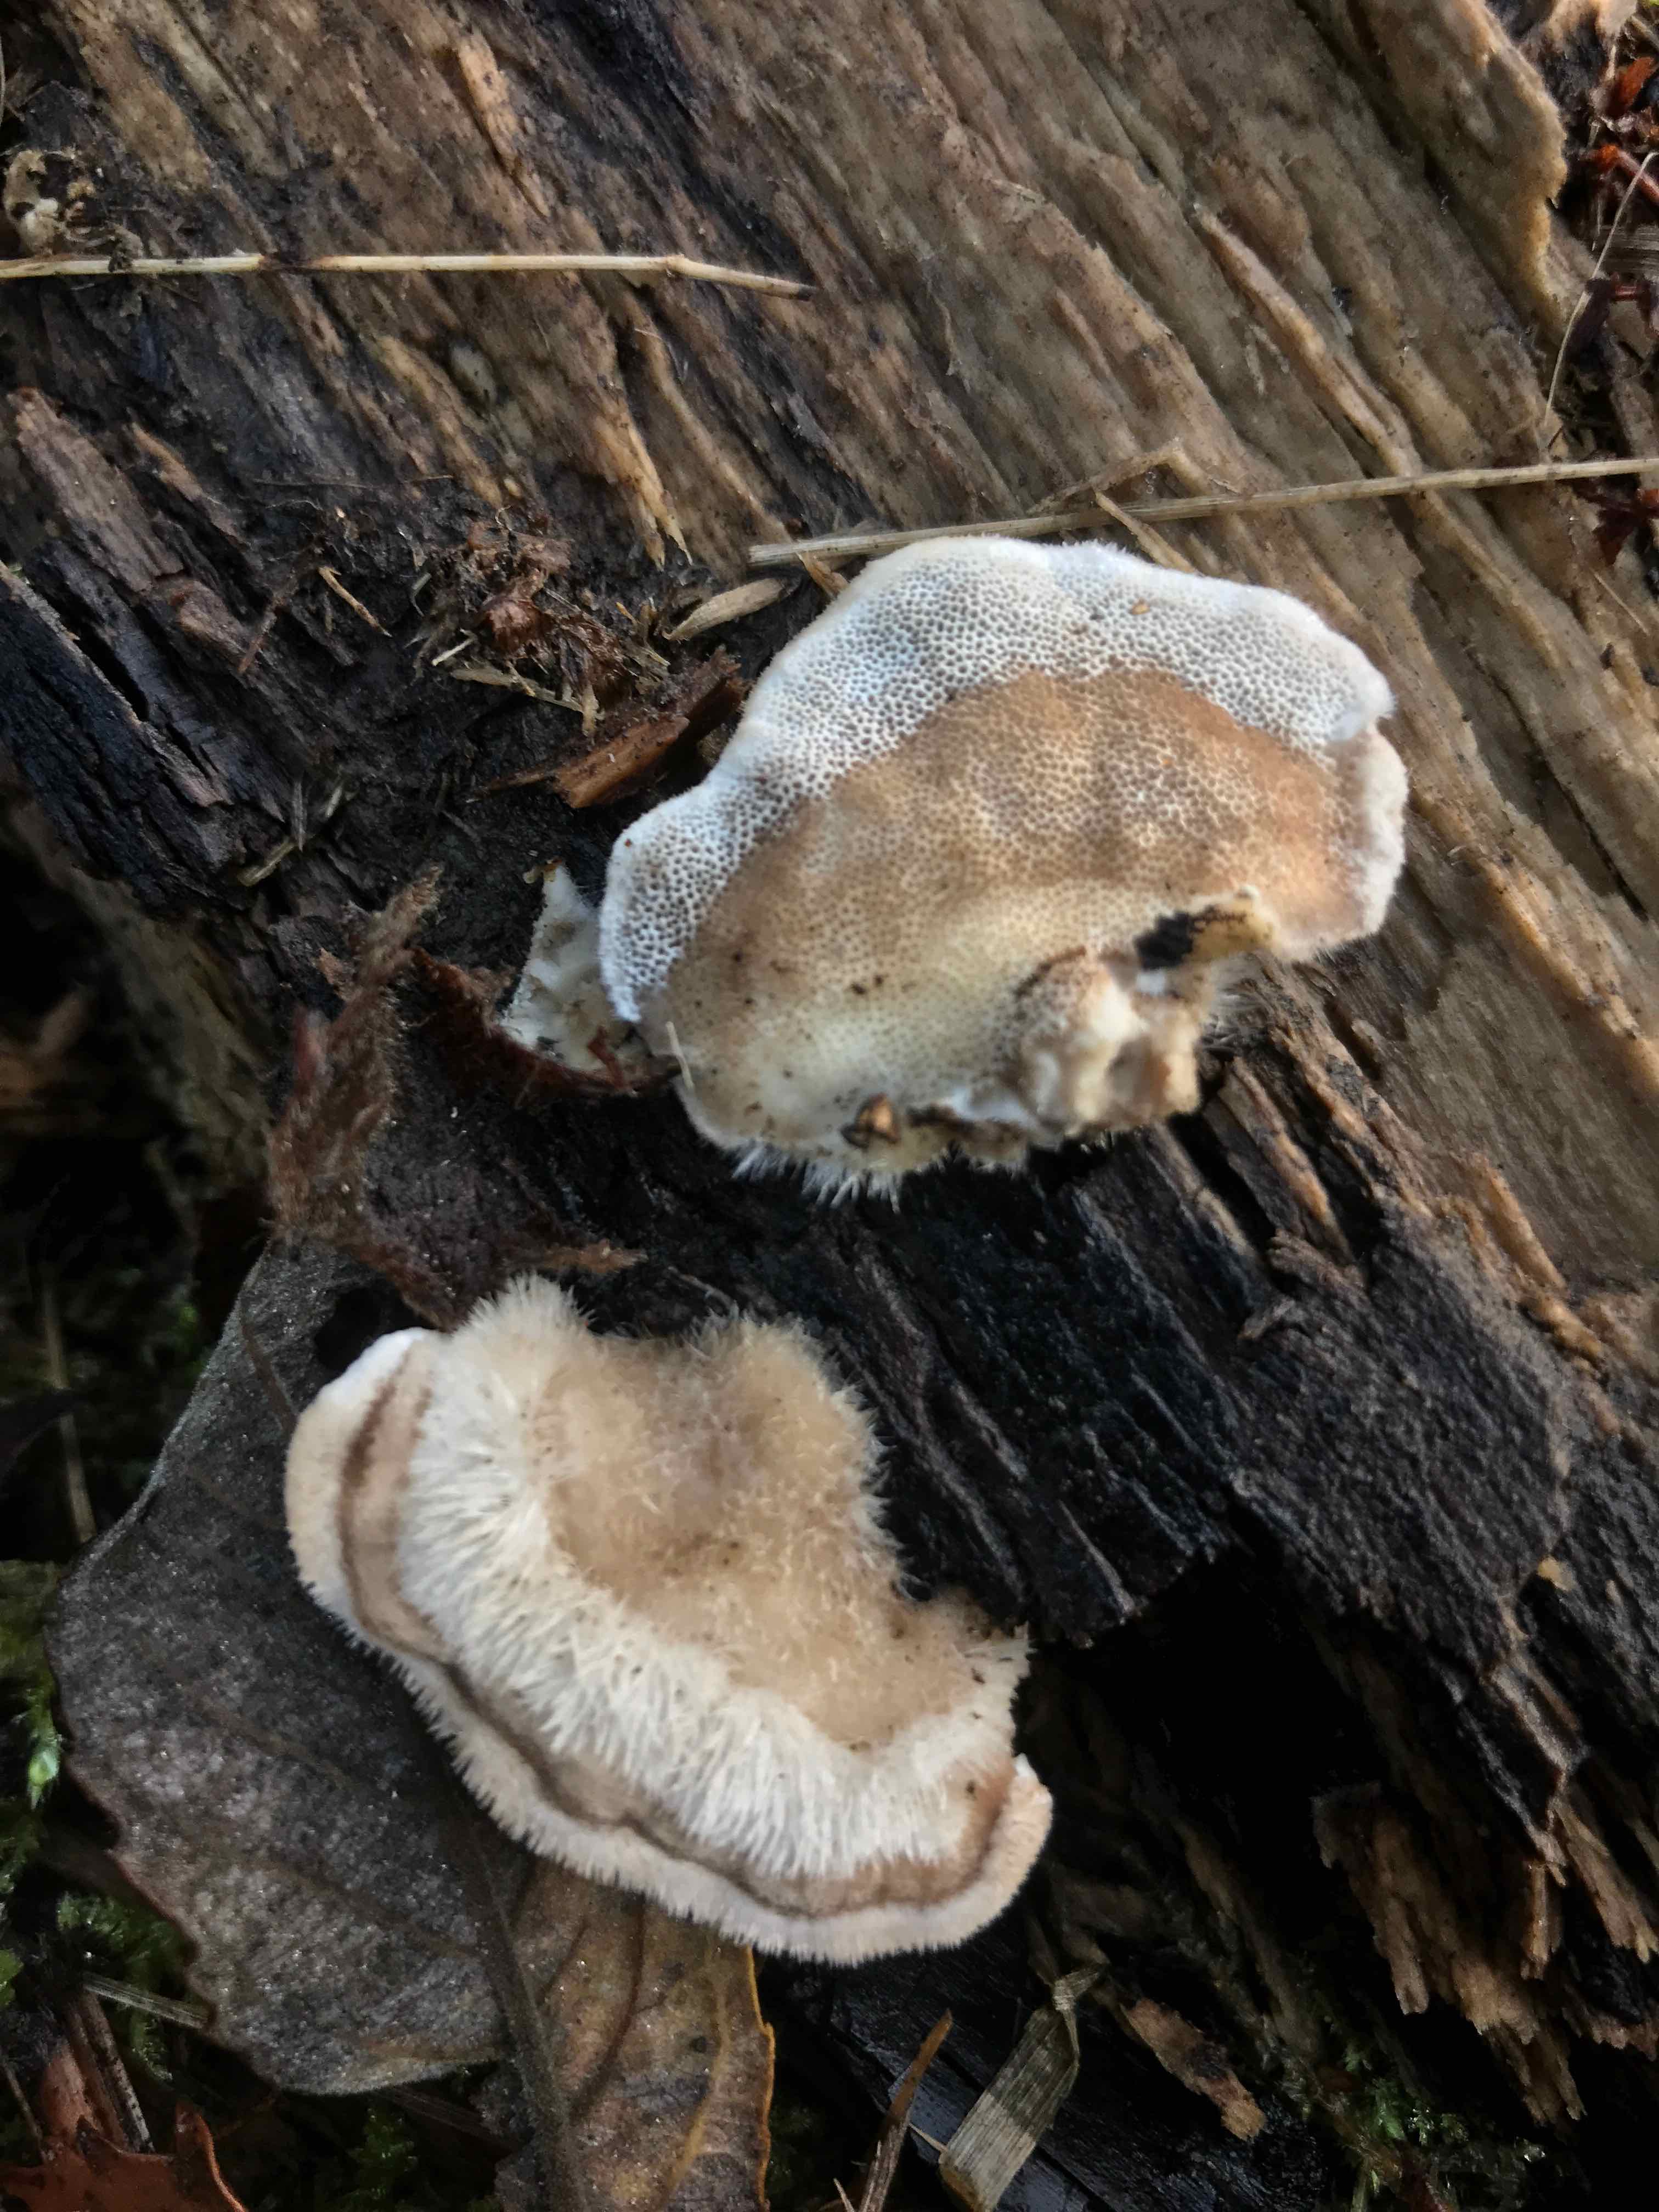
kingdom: Fungi
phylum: Basidiomycota
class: Agaricomycetes
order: Polyporales
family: Polyporaceae
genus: Trametes
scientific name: Trametes hirsuta
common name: håret læderporesvamp
